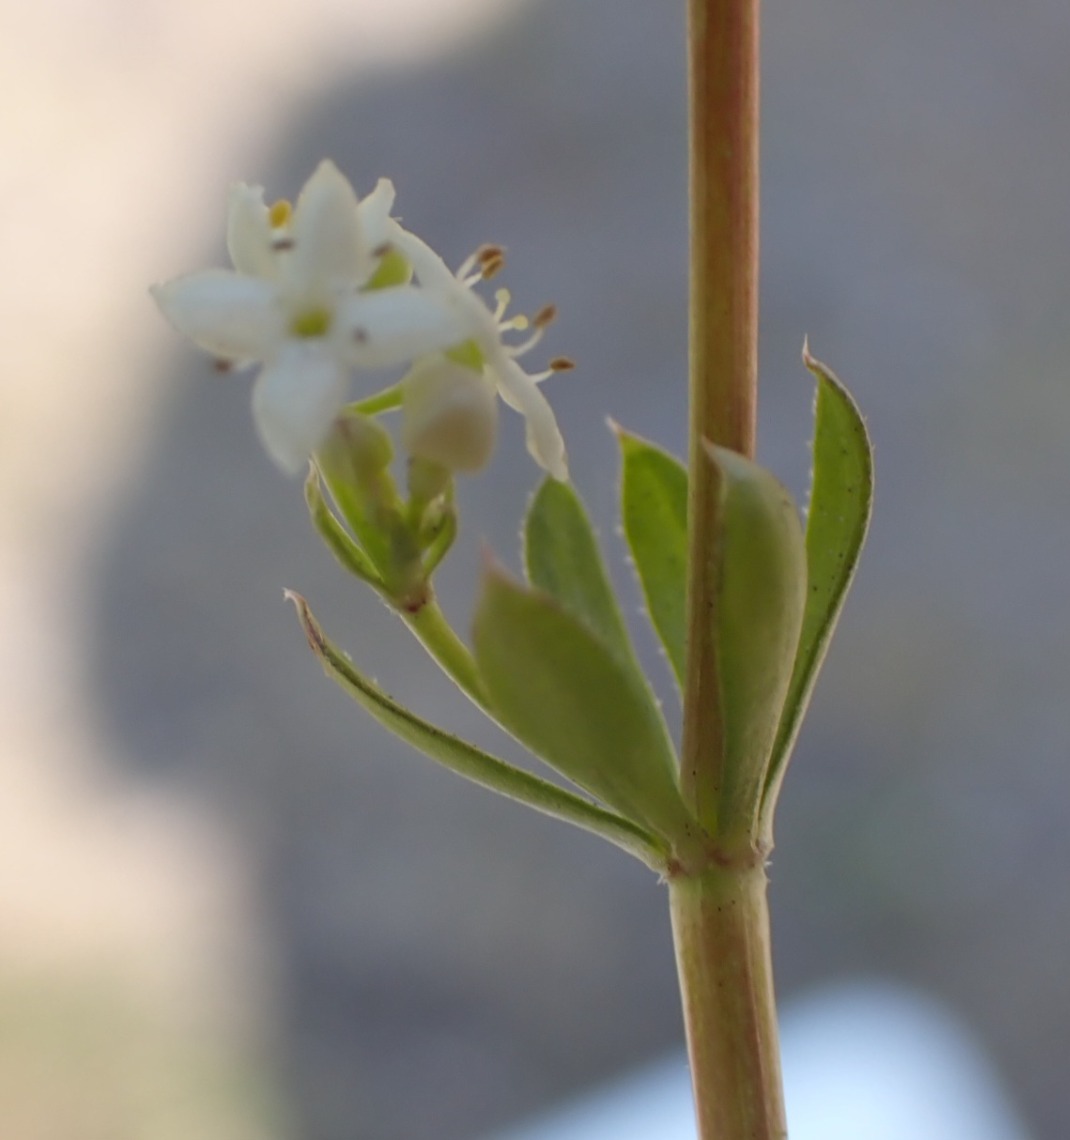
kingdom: Plantae
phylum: Tracheophyta
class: Magnoliopsida
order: Gentianales
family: Rubiaceae
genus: Galium
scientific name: Galium saxatile
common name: Lyng-snerre
